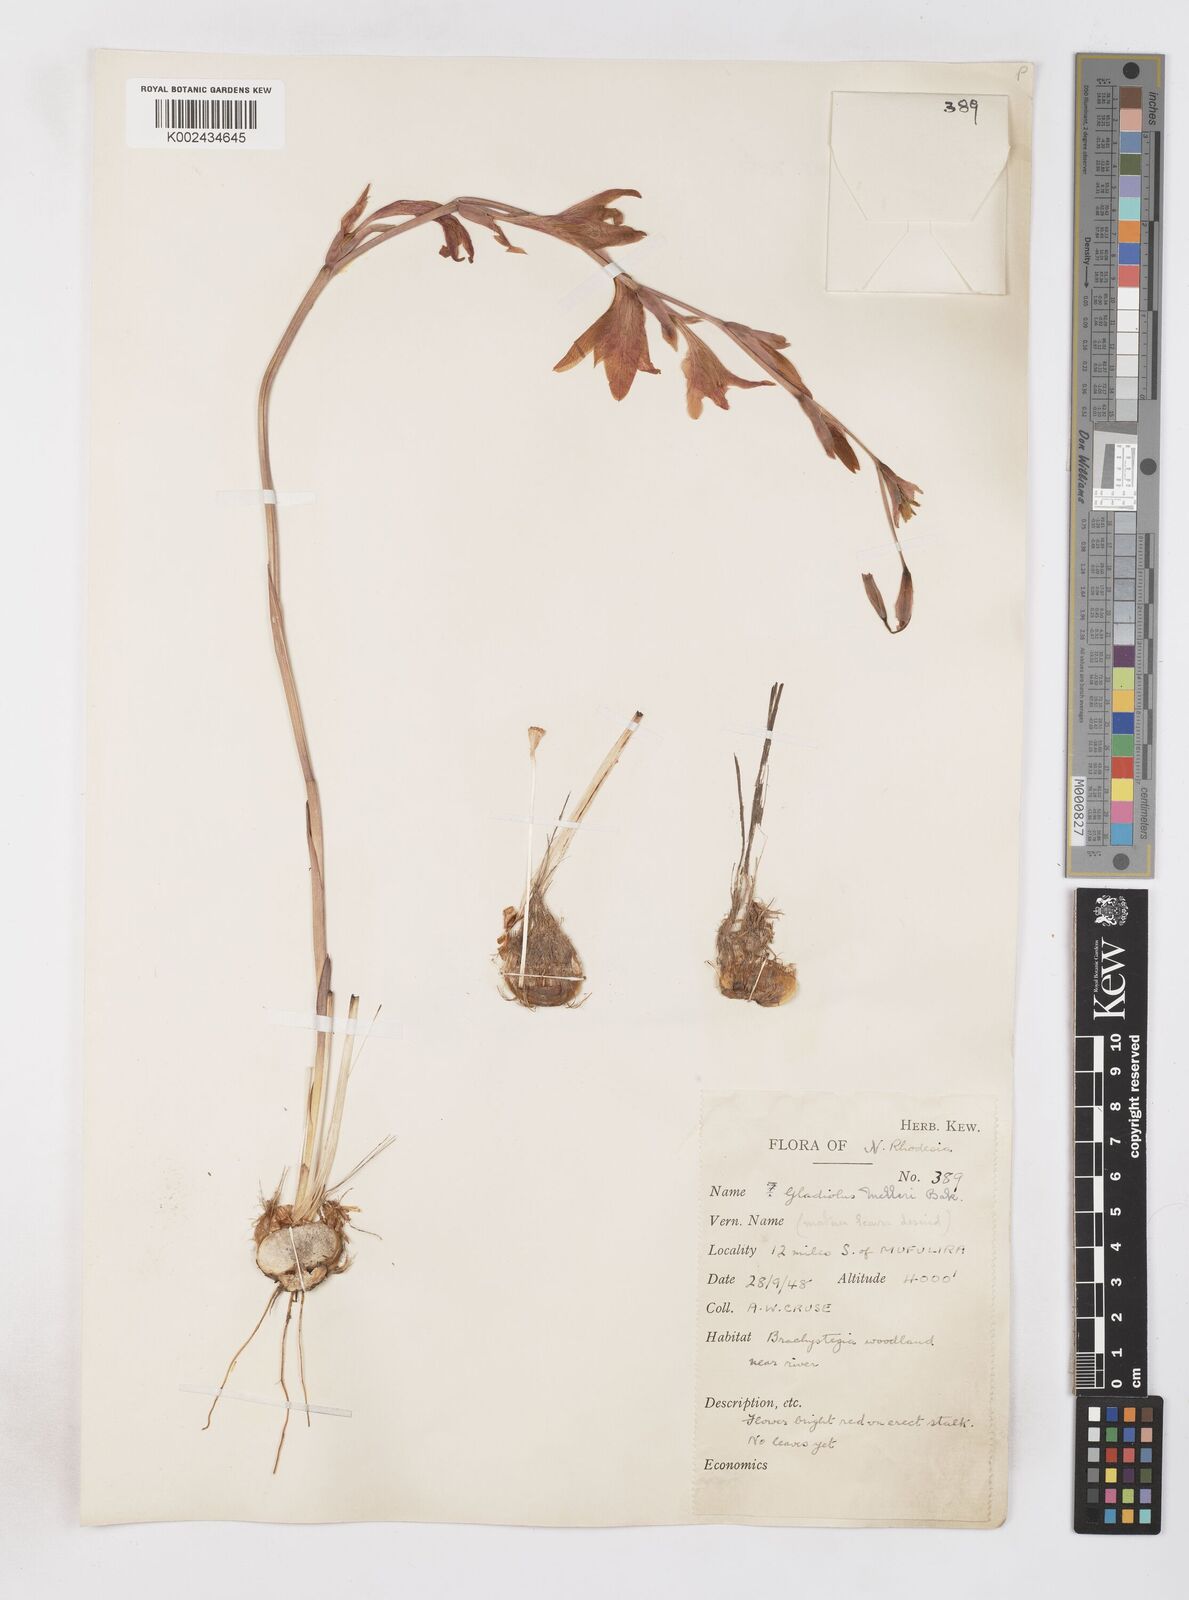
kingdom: Plantae
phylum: Tracheophyta
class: Liliopsida
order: Asparagales
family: Iridaceae
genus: Gladiolus
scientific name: Gladiolus melleri
